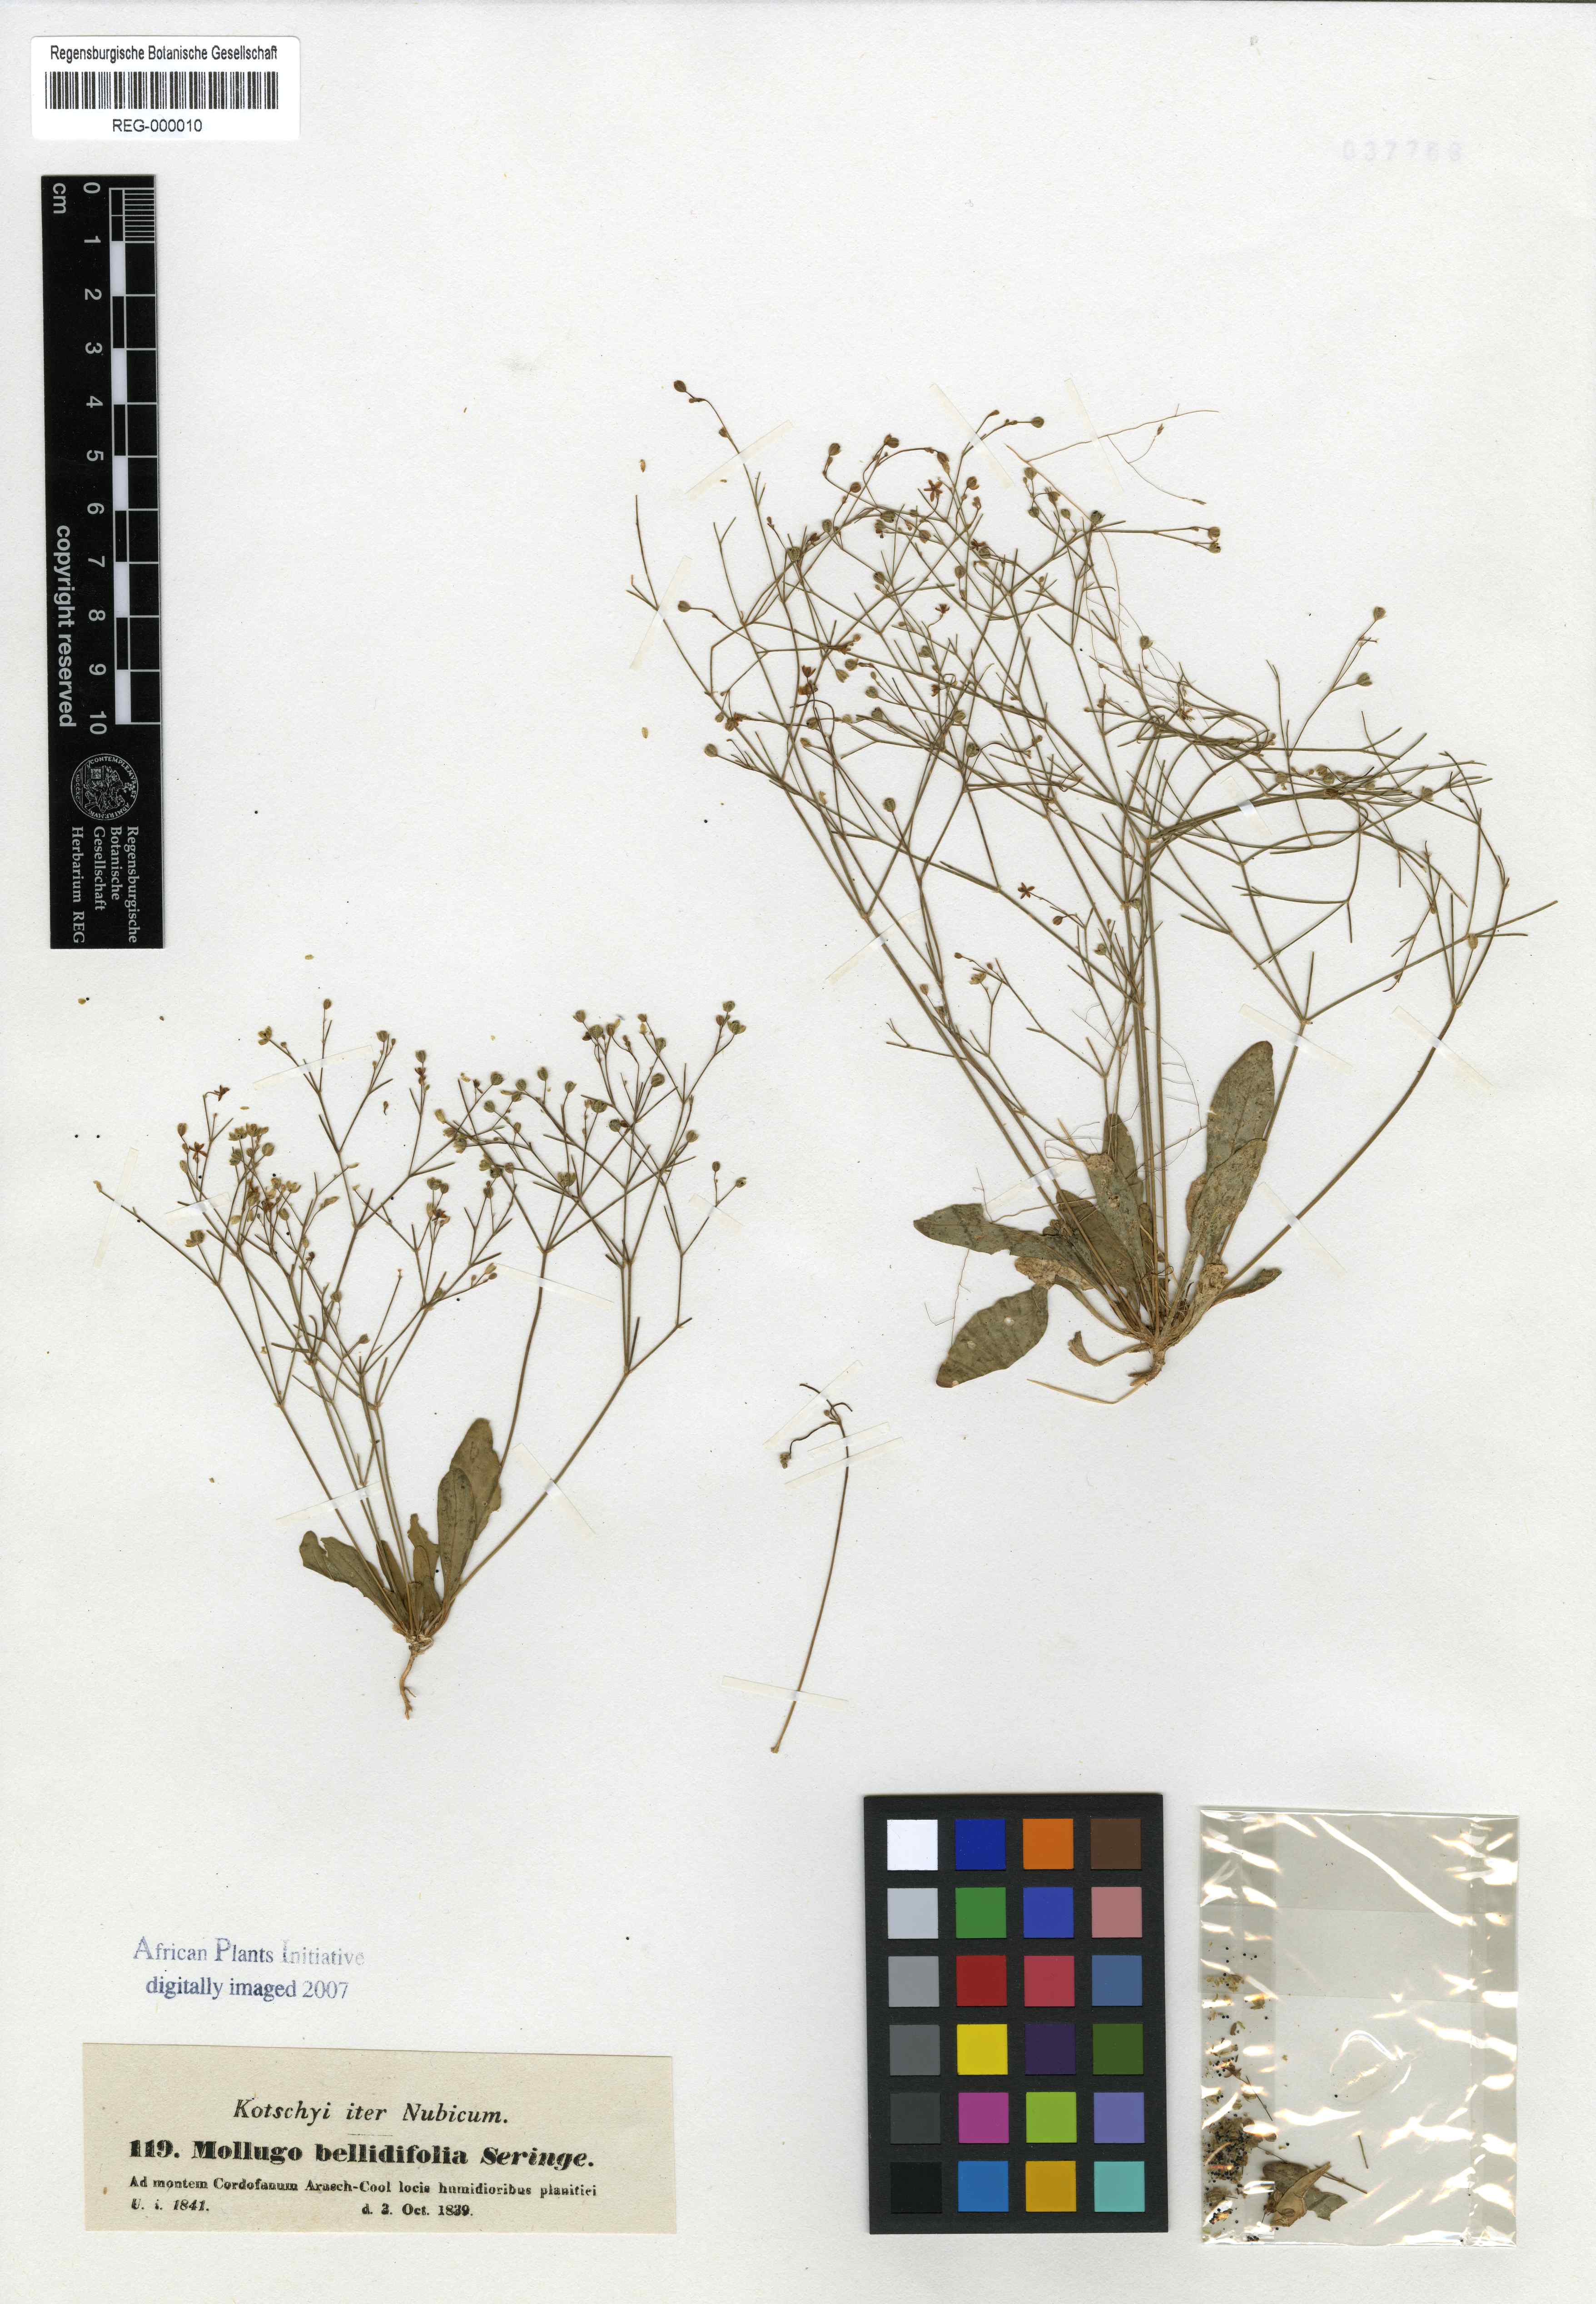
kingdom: Plantae
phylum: Tracheophyta
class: Magnoliopsida
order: Caryophyllales
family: Molluginaceae
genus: Paramollugo
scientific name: Paramollugo nudicaulis
